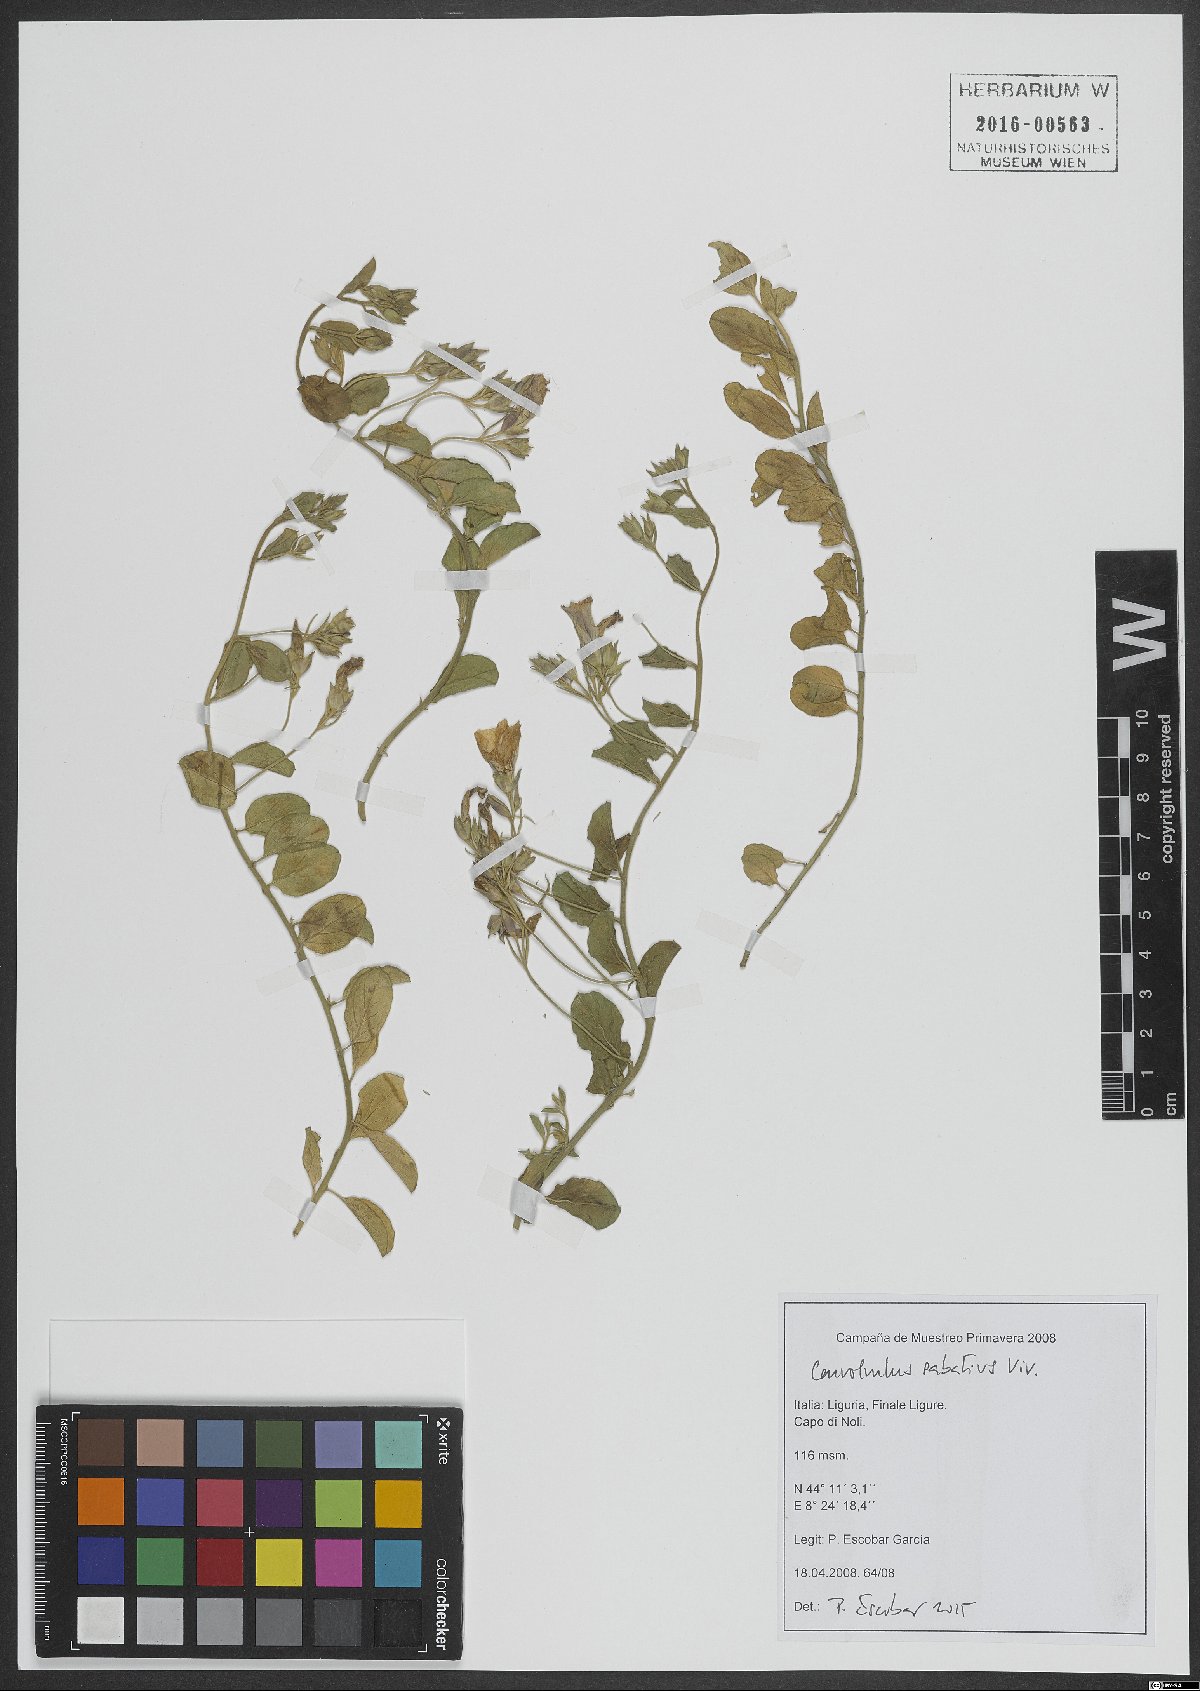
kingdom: Plantae
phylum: Tracheophyta
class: Magnoliopsida
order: Solanales
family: Convolvulaceae
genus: Convolvulus
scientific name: Convolvulus sabatius
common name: Ground blue-convolvulus
